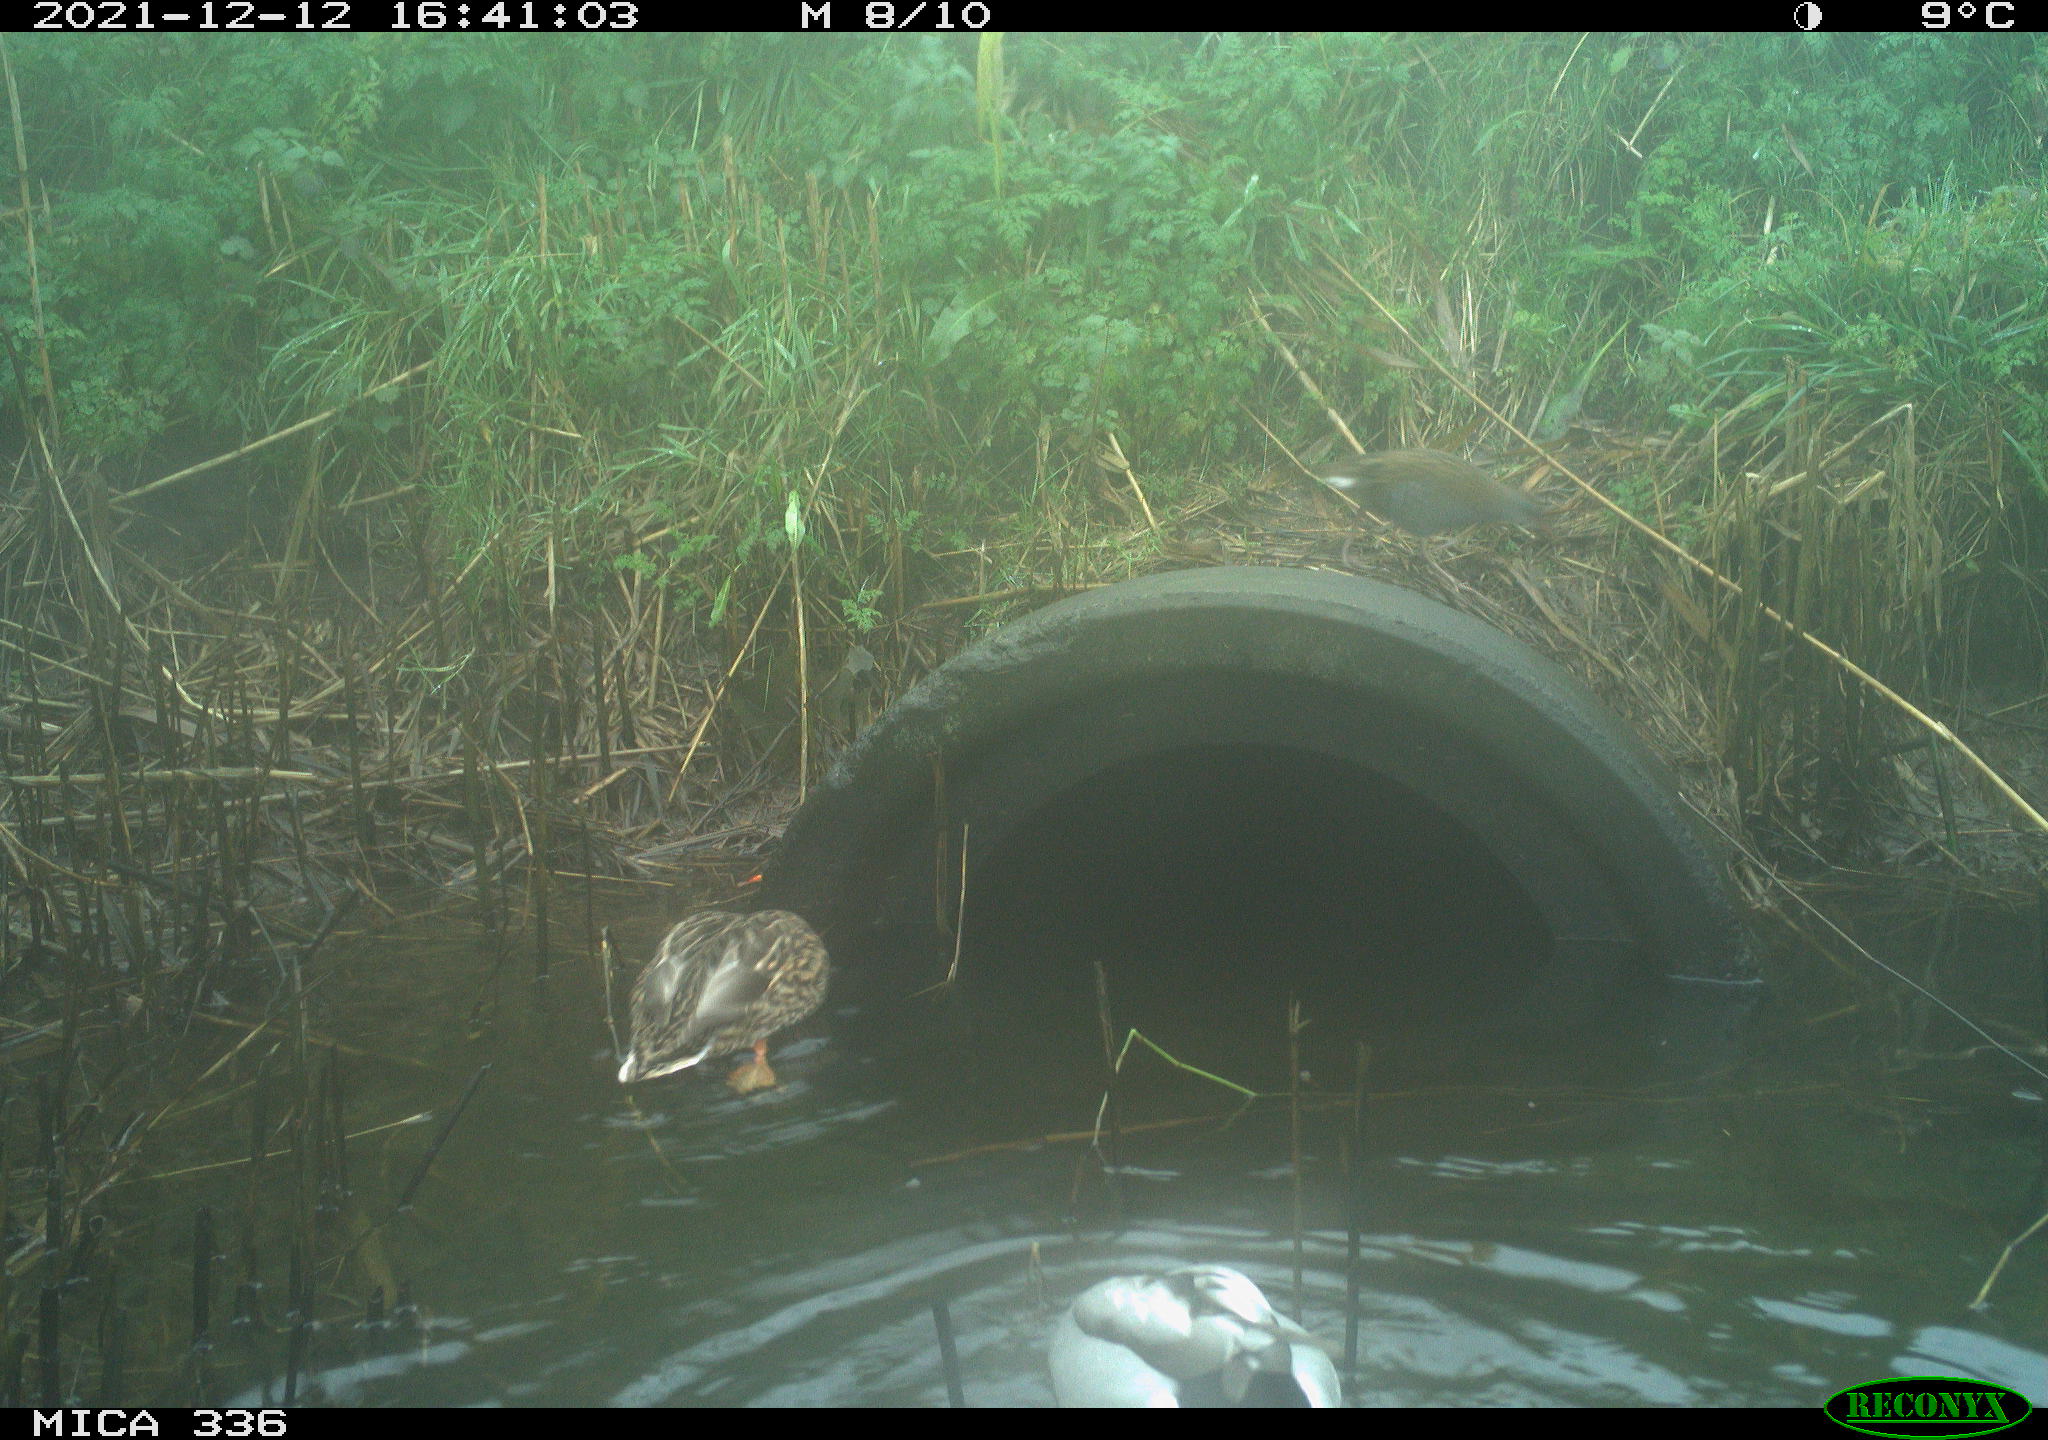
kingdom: Animalia
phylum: Chordata
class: Aves
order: Anseriformes
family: Anatidae
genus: Anas
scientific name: Anas platyrhynchos
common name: Mallard
